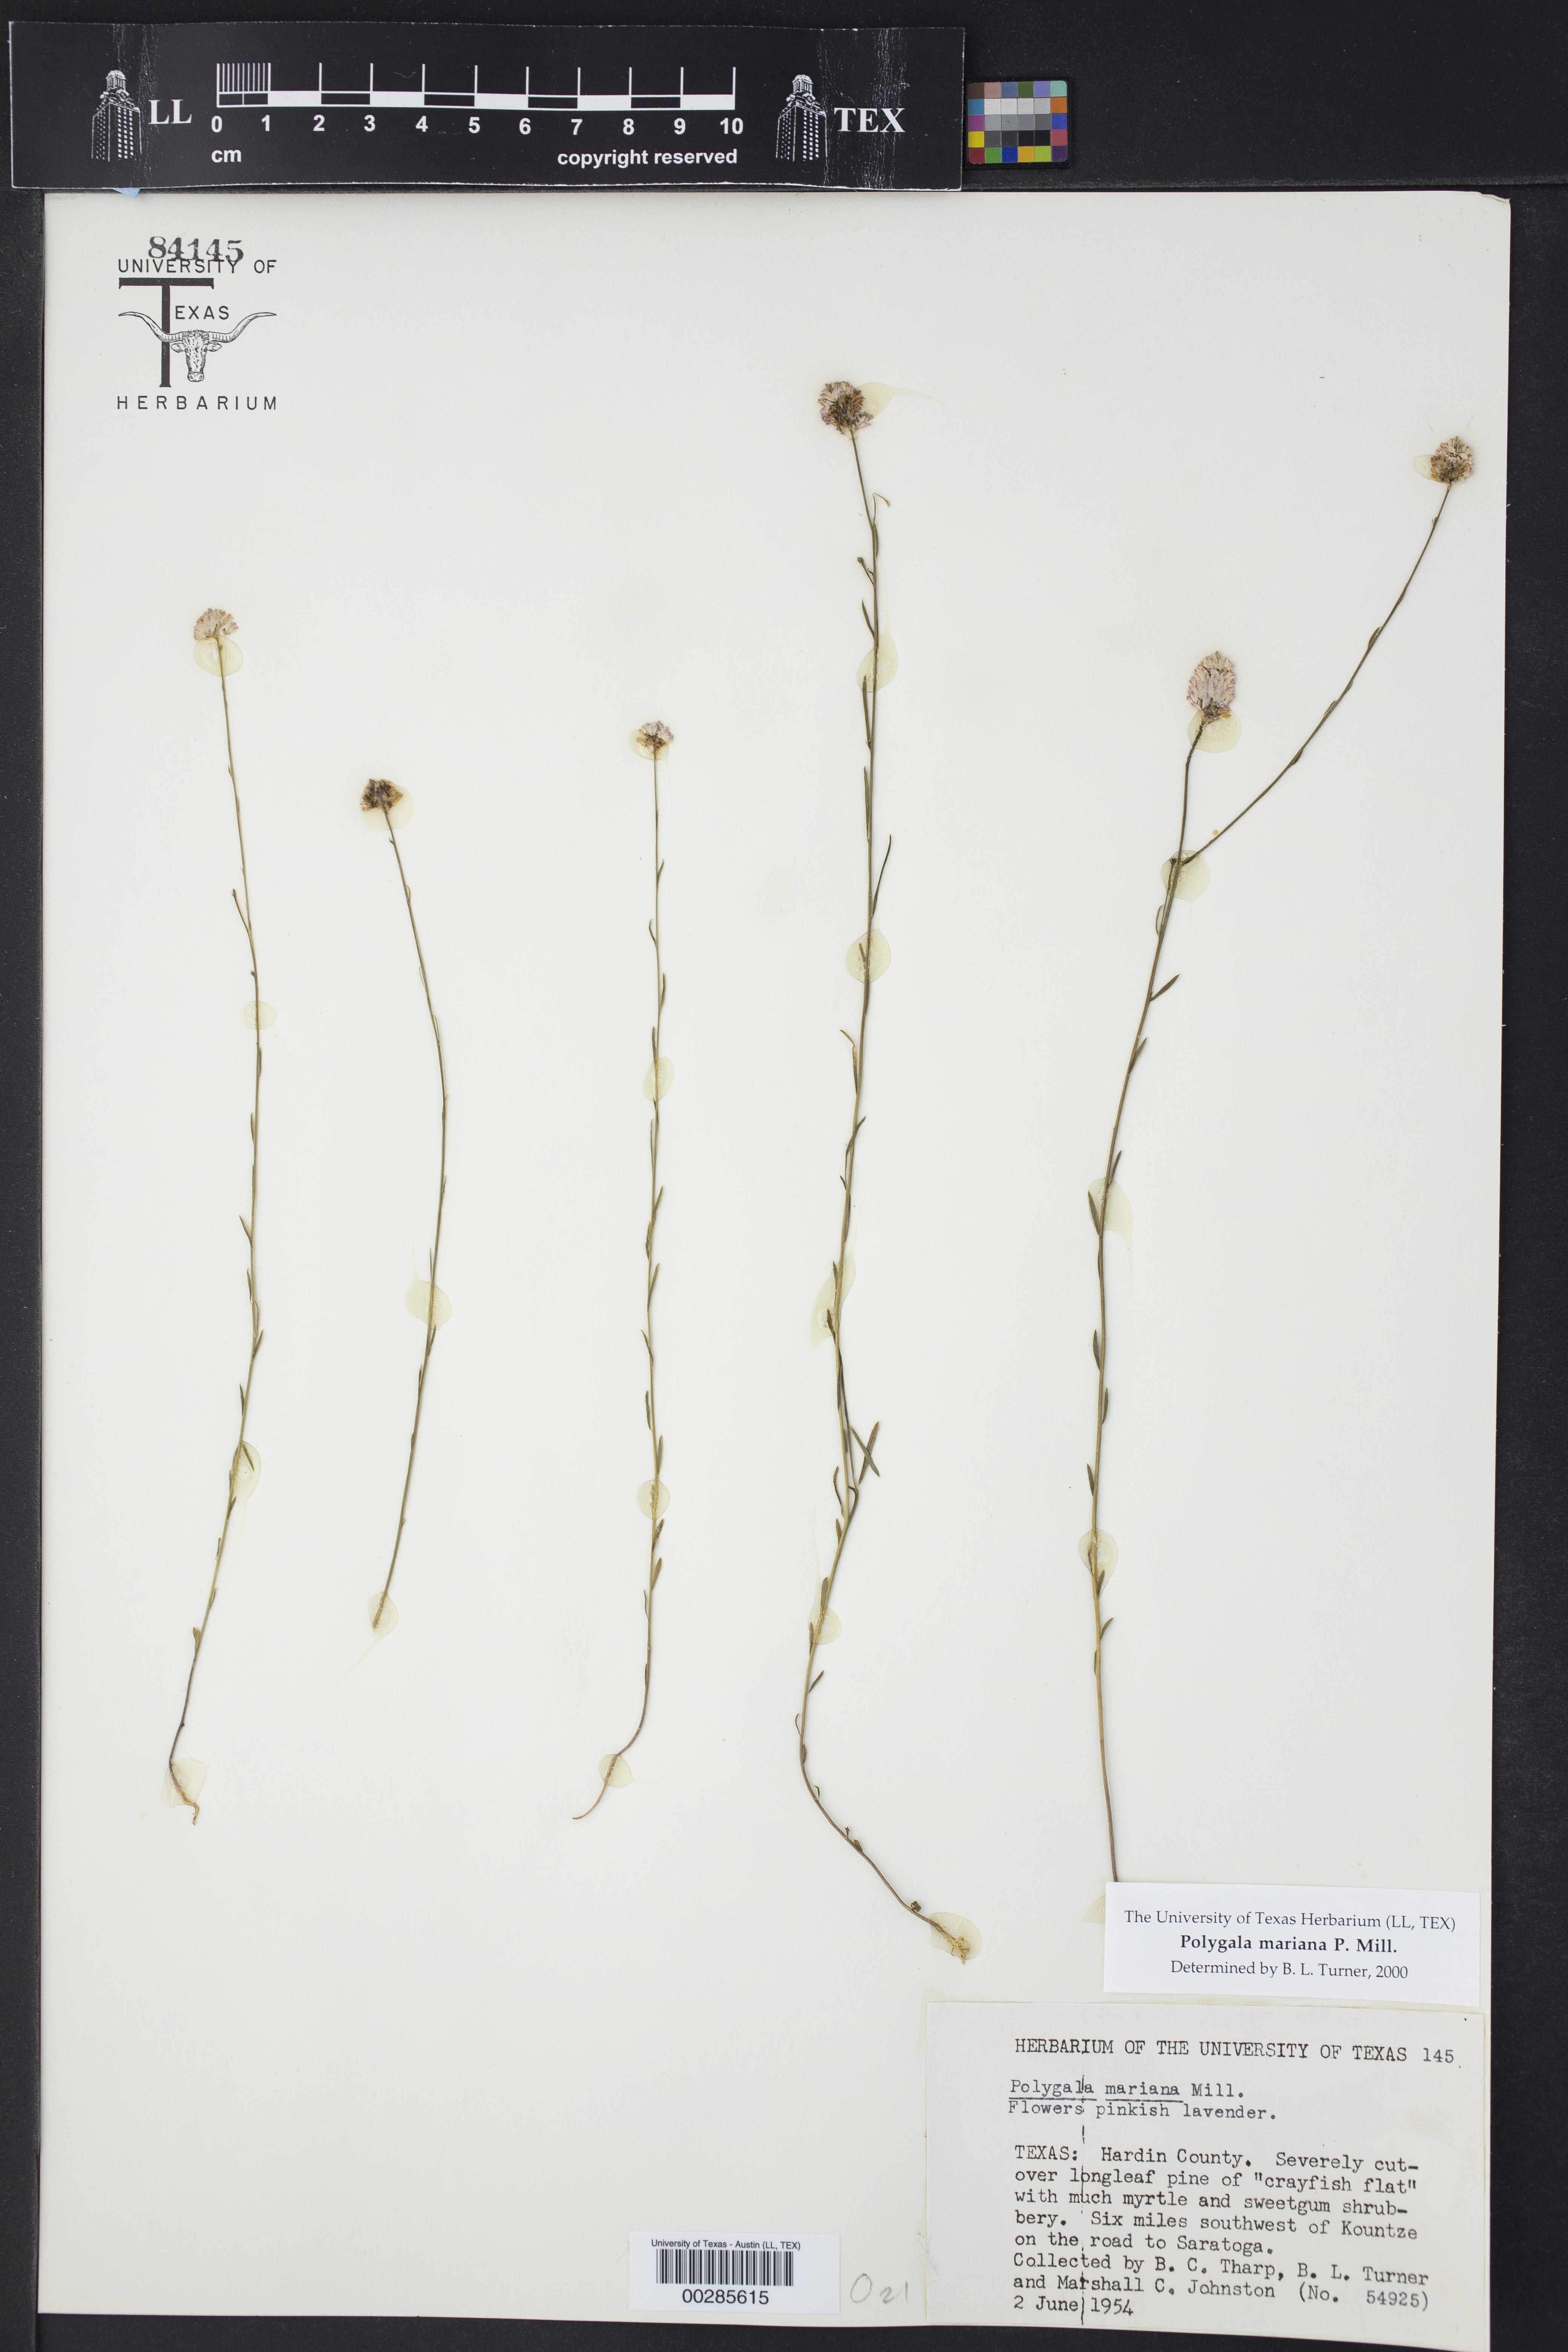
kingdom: Plantae
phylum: Tracheophyta
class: Magnoliopsida
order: Fabales
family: Polygalaceae
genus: Polygala
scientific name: Polygala mariana
